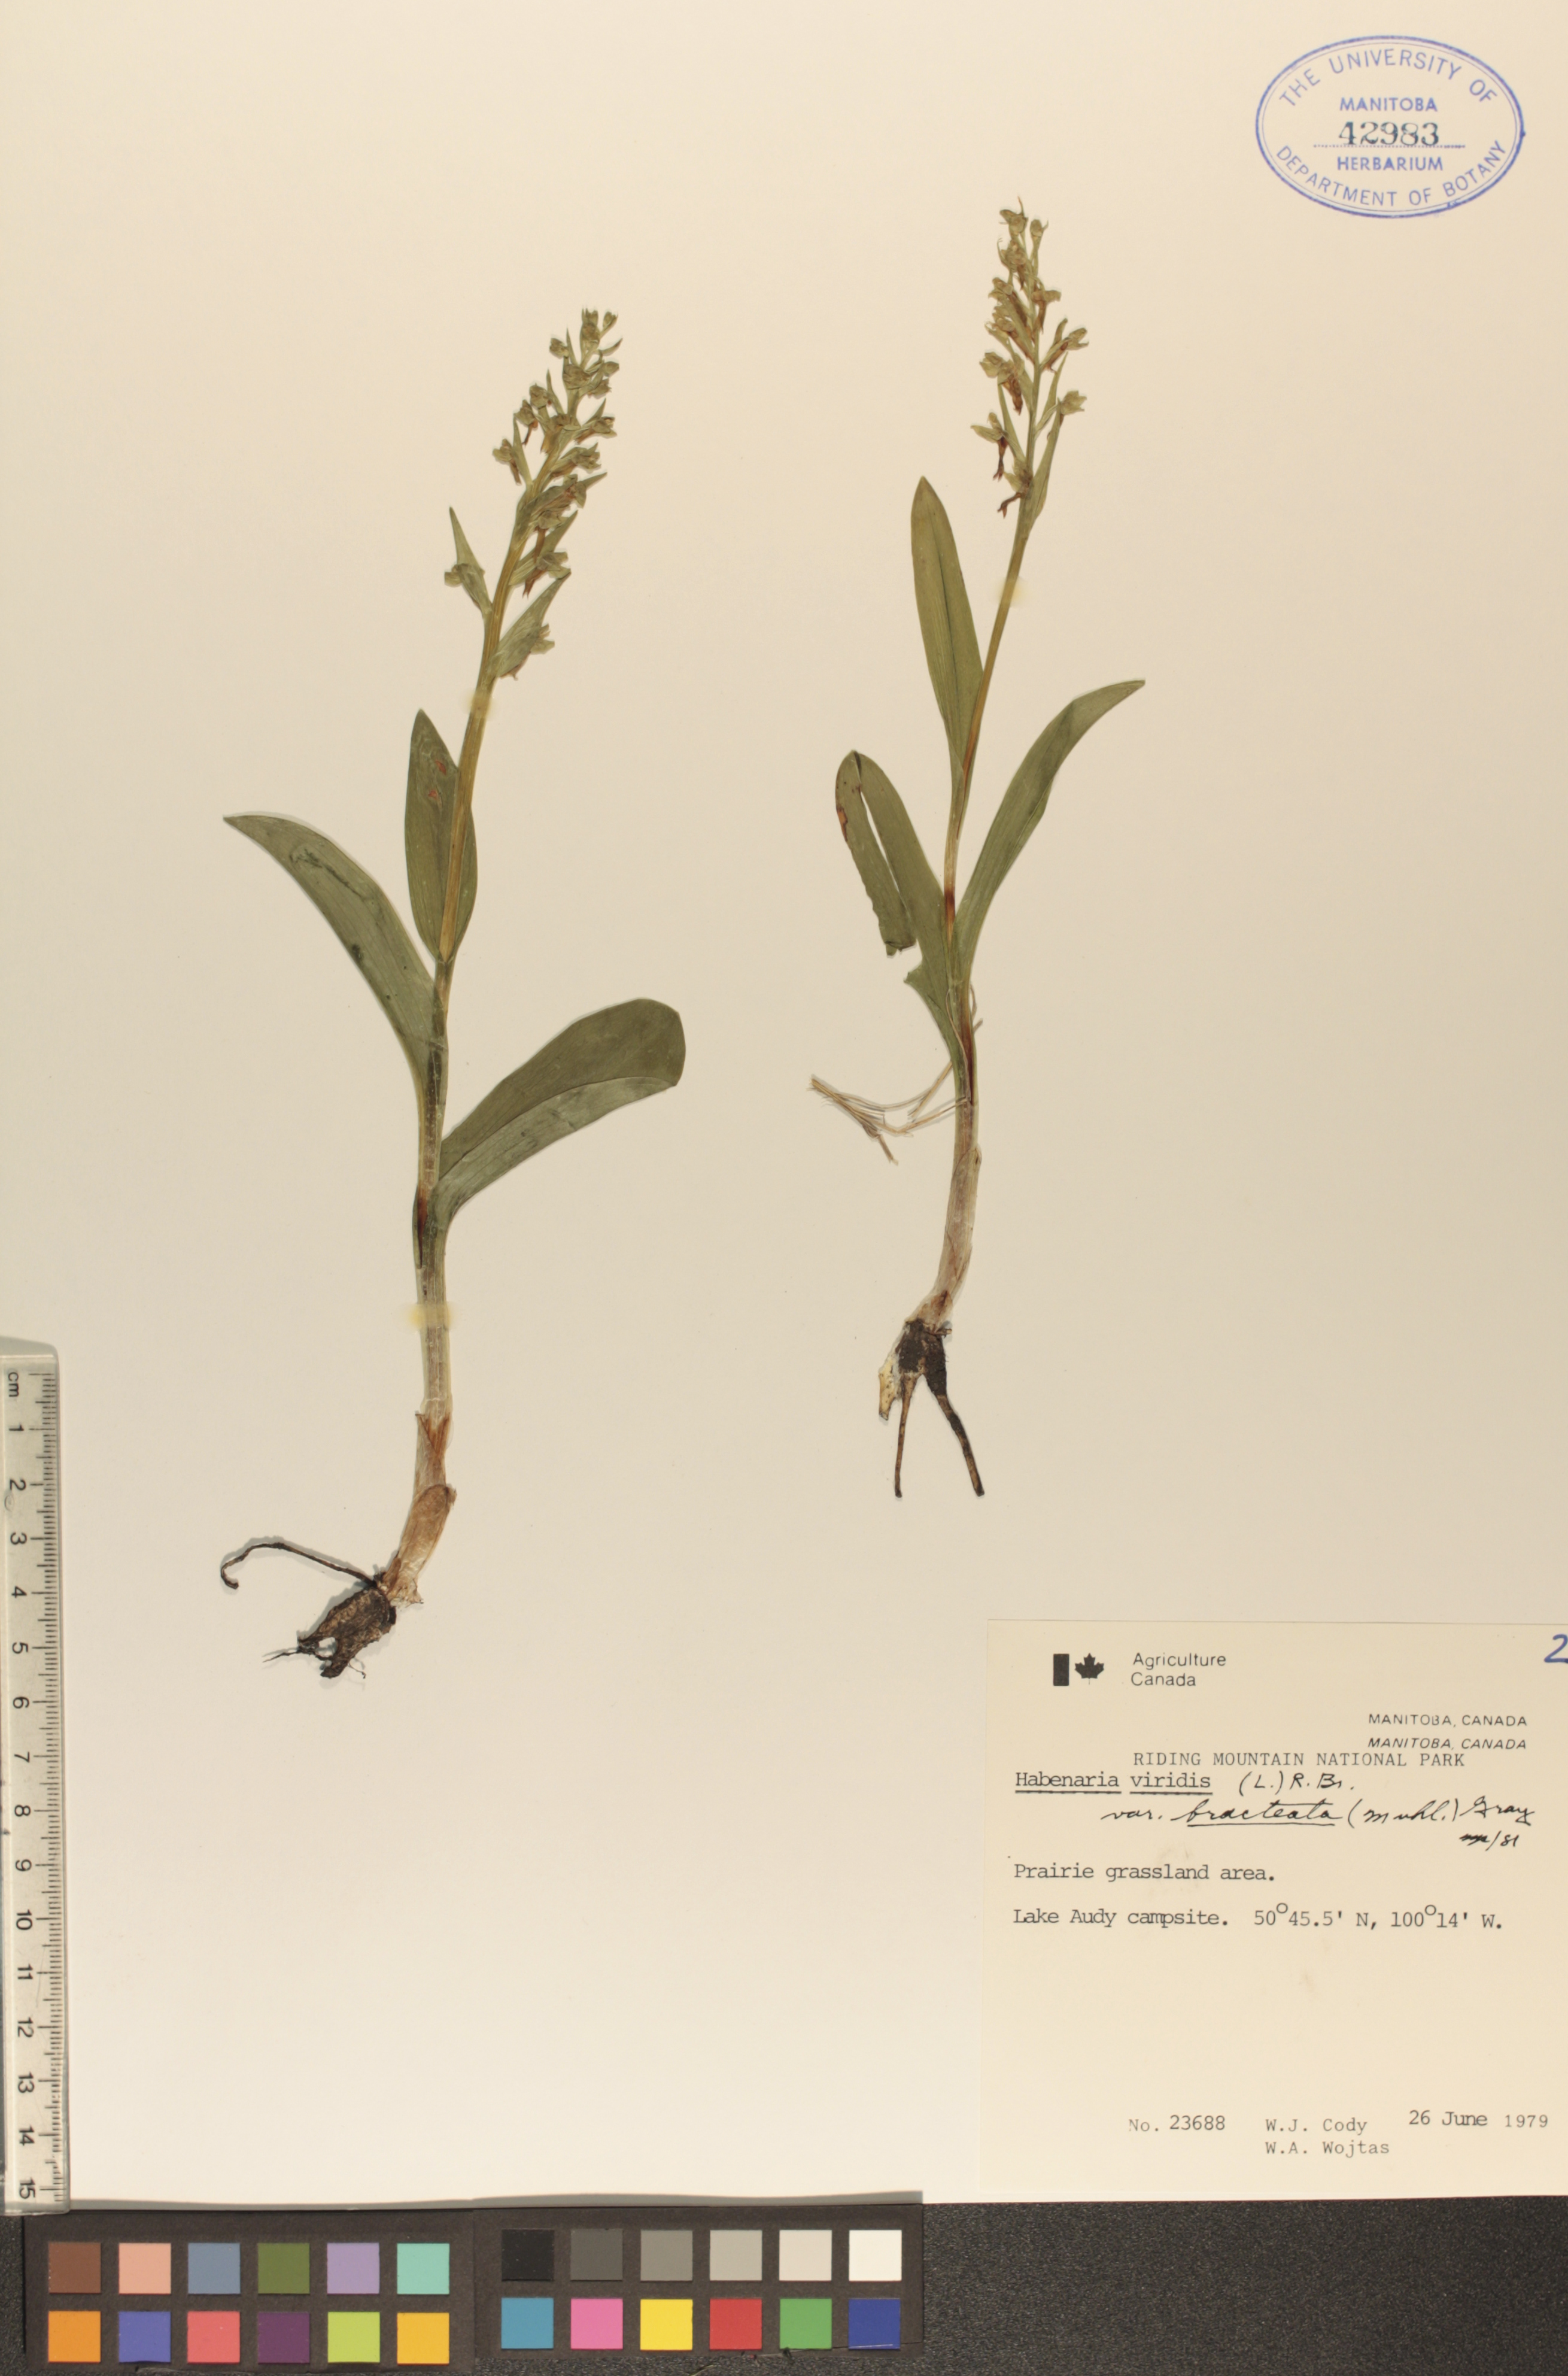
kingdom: Plantae
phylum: Tracheophyta
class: Liliopsida
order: Asparagales
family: Orchidaceae
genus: Dactylorhiza
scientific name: Dactylorhiza viridis
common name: Longbract frog orchid
